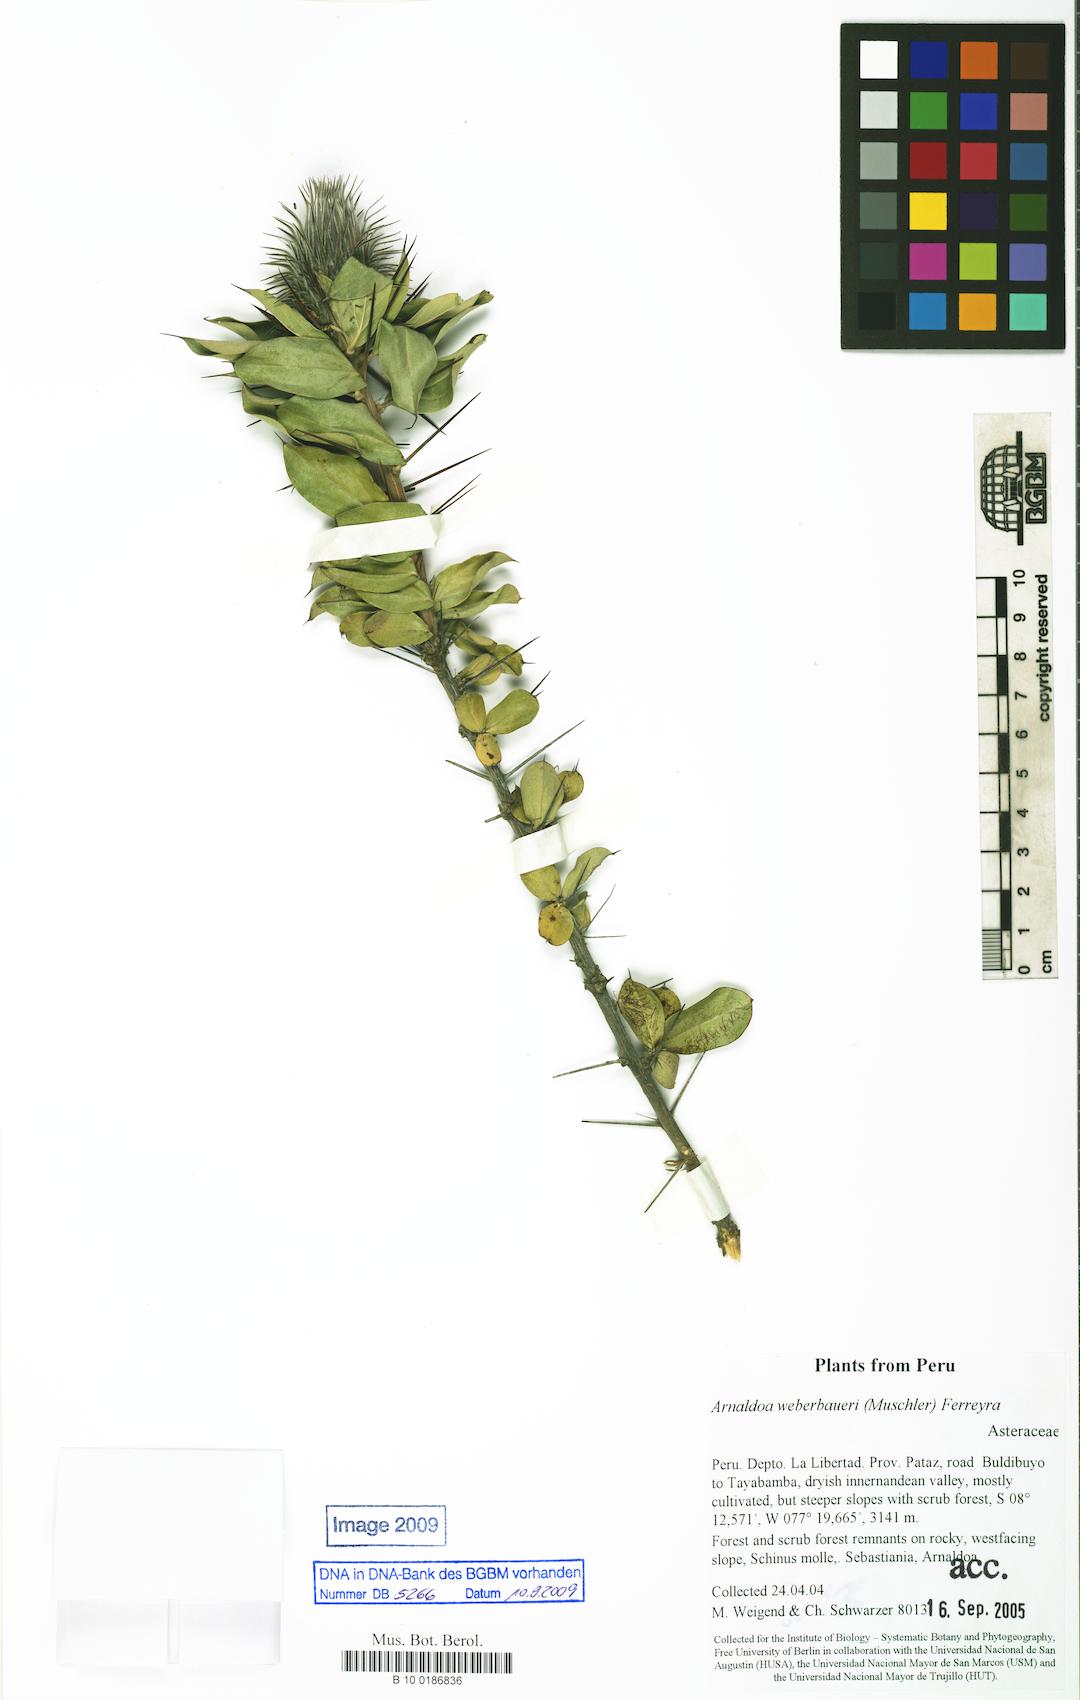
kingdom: Plantae
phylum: Tracheophyta
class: Magnoliopsida
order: Asterales
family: Asteraceae
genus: Arnaldoa
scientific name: Arnaldoa weberbaueri
